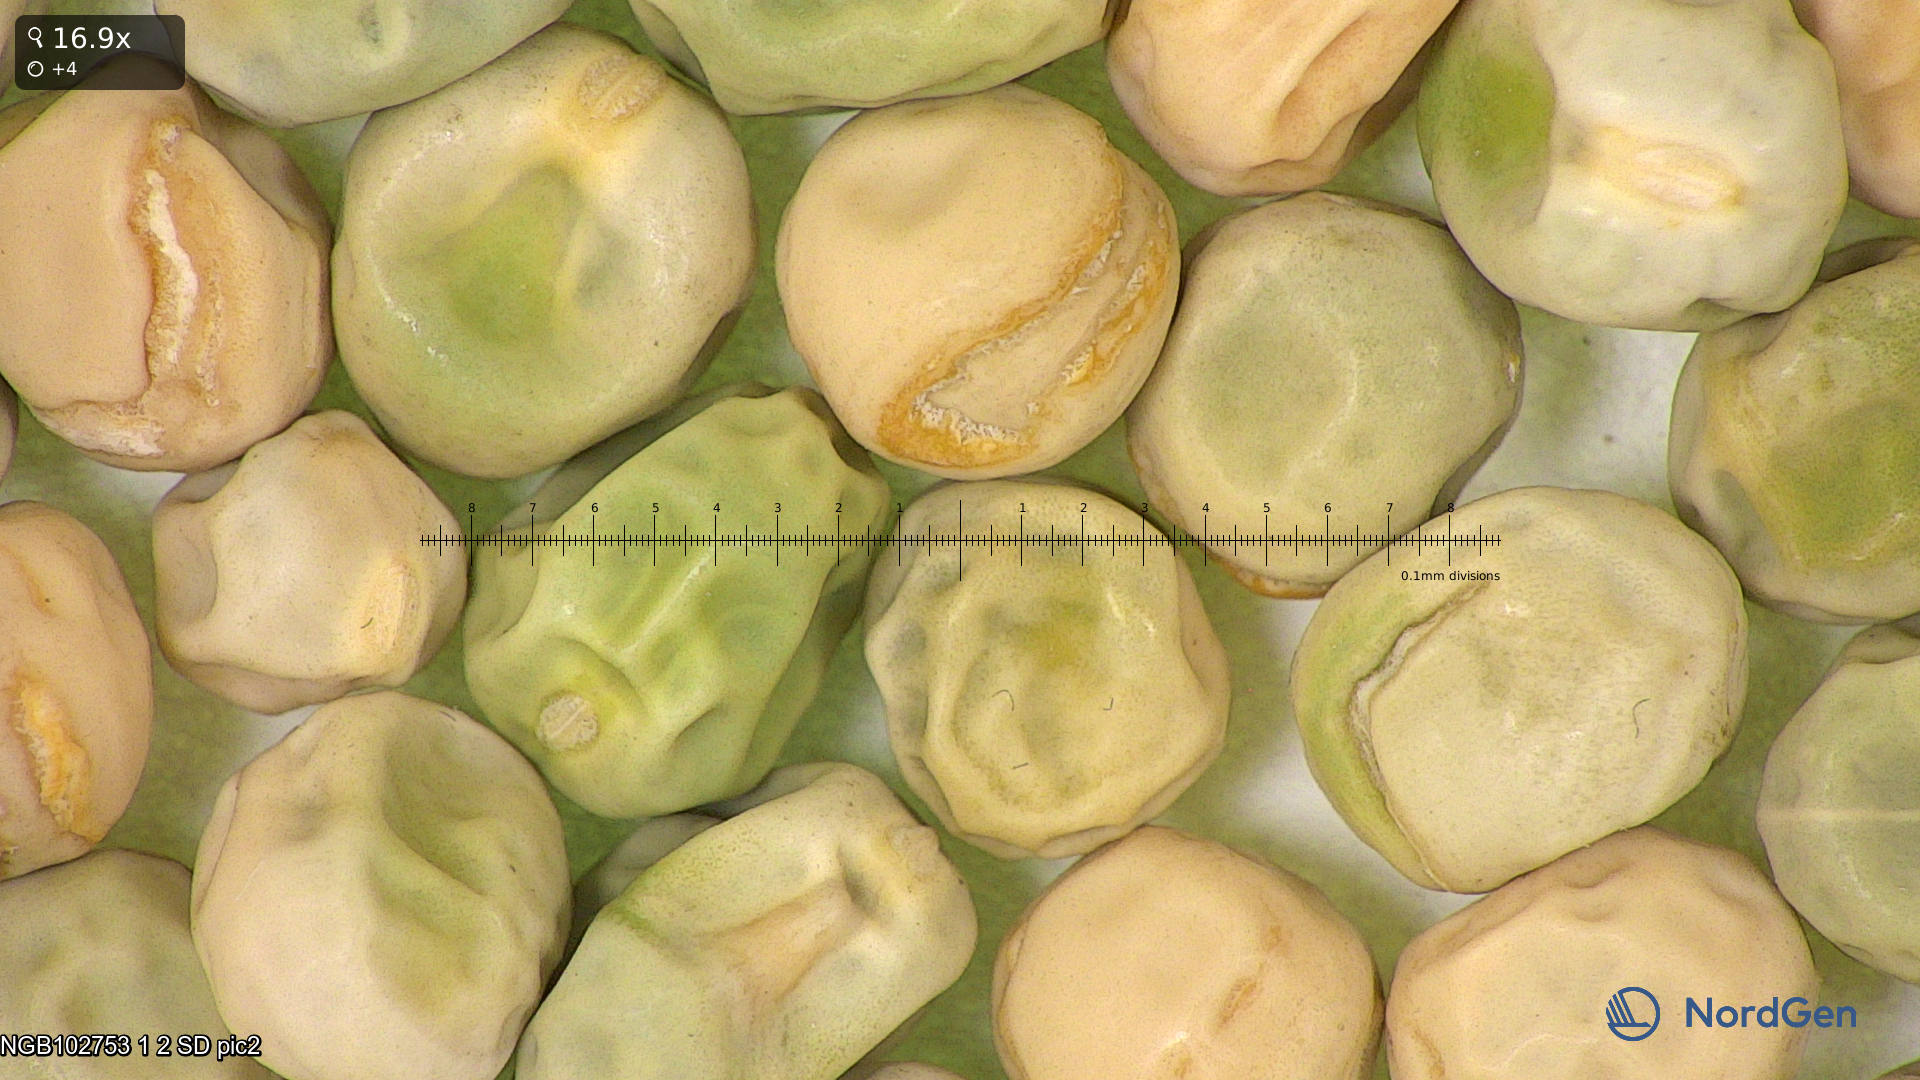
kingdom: Plantae
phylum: Tracheophyta
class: Magnoliopsida
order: Fabales
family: Fabaceae
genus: Lathyrus
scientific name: Lathyrus oleraceus
